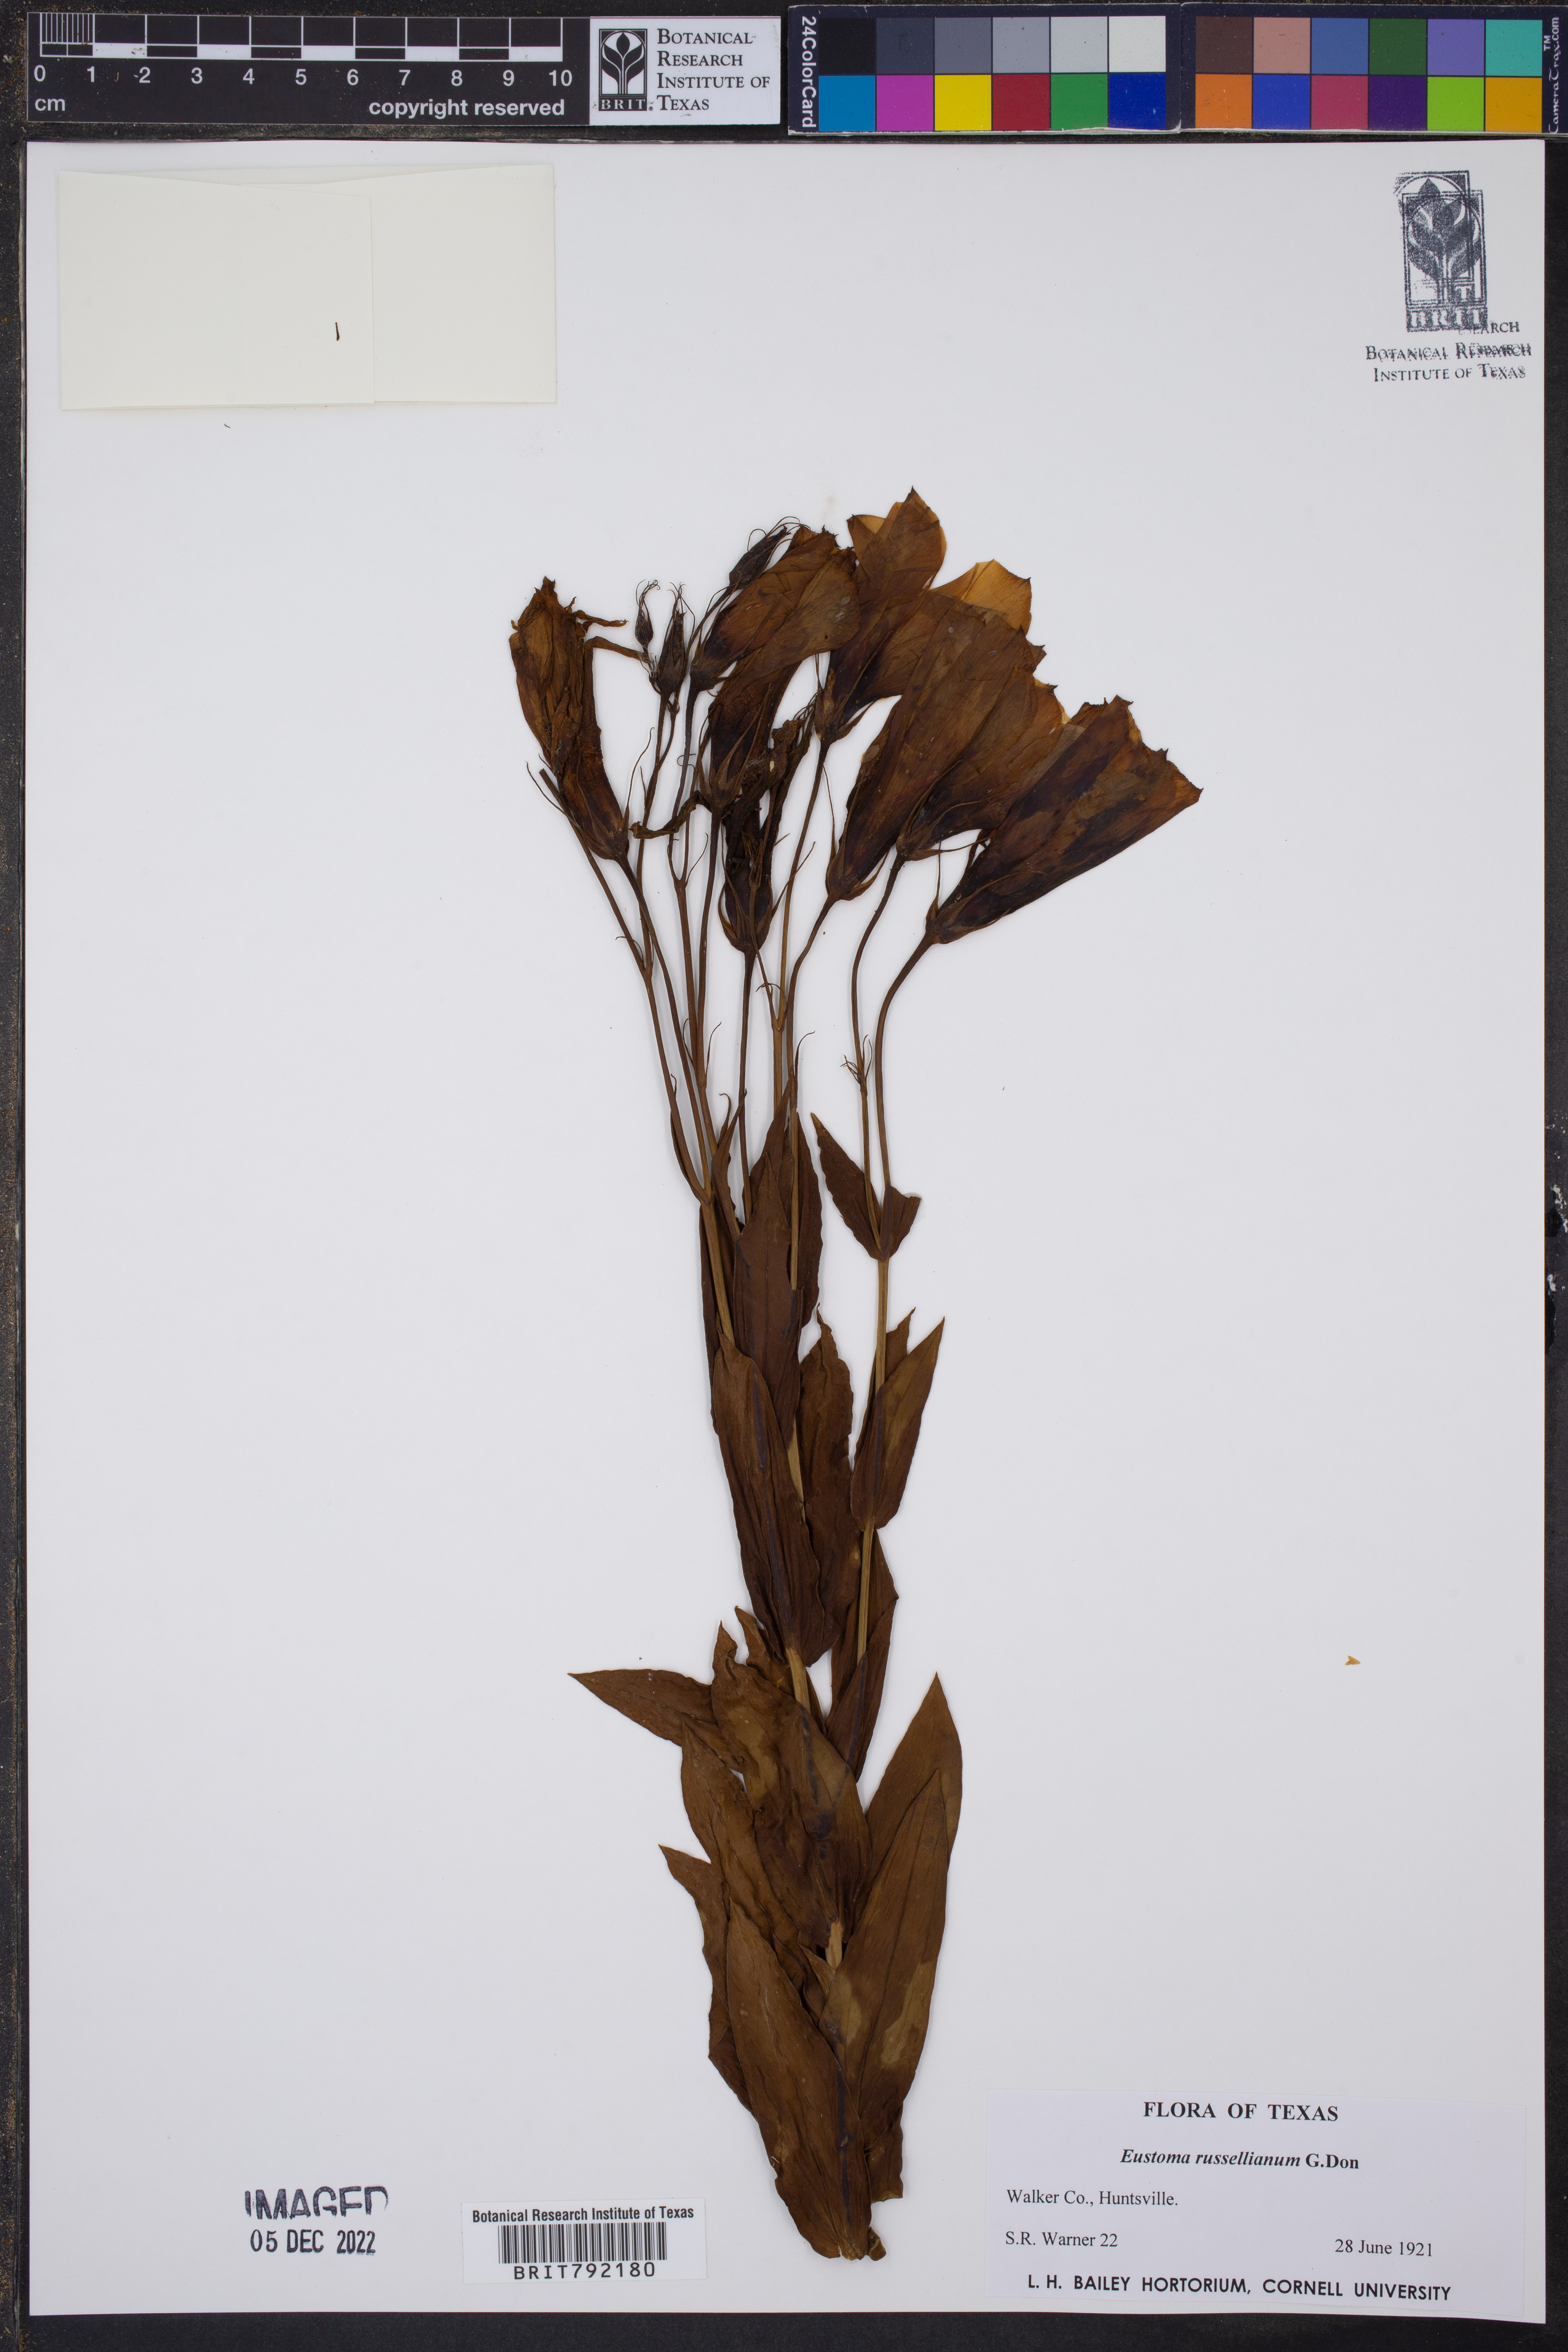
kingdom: Plantae
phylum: Tracheophyta
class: Magnoliopsida
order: Gentianales
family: Gentianaceae
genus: Eustoma
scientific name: Eustoma russellianum
